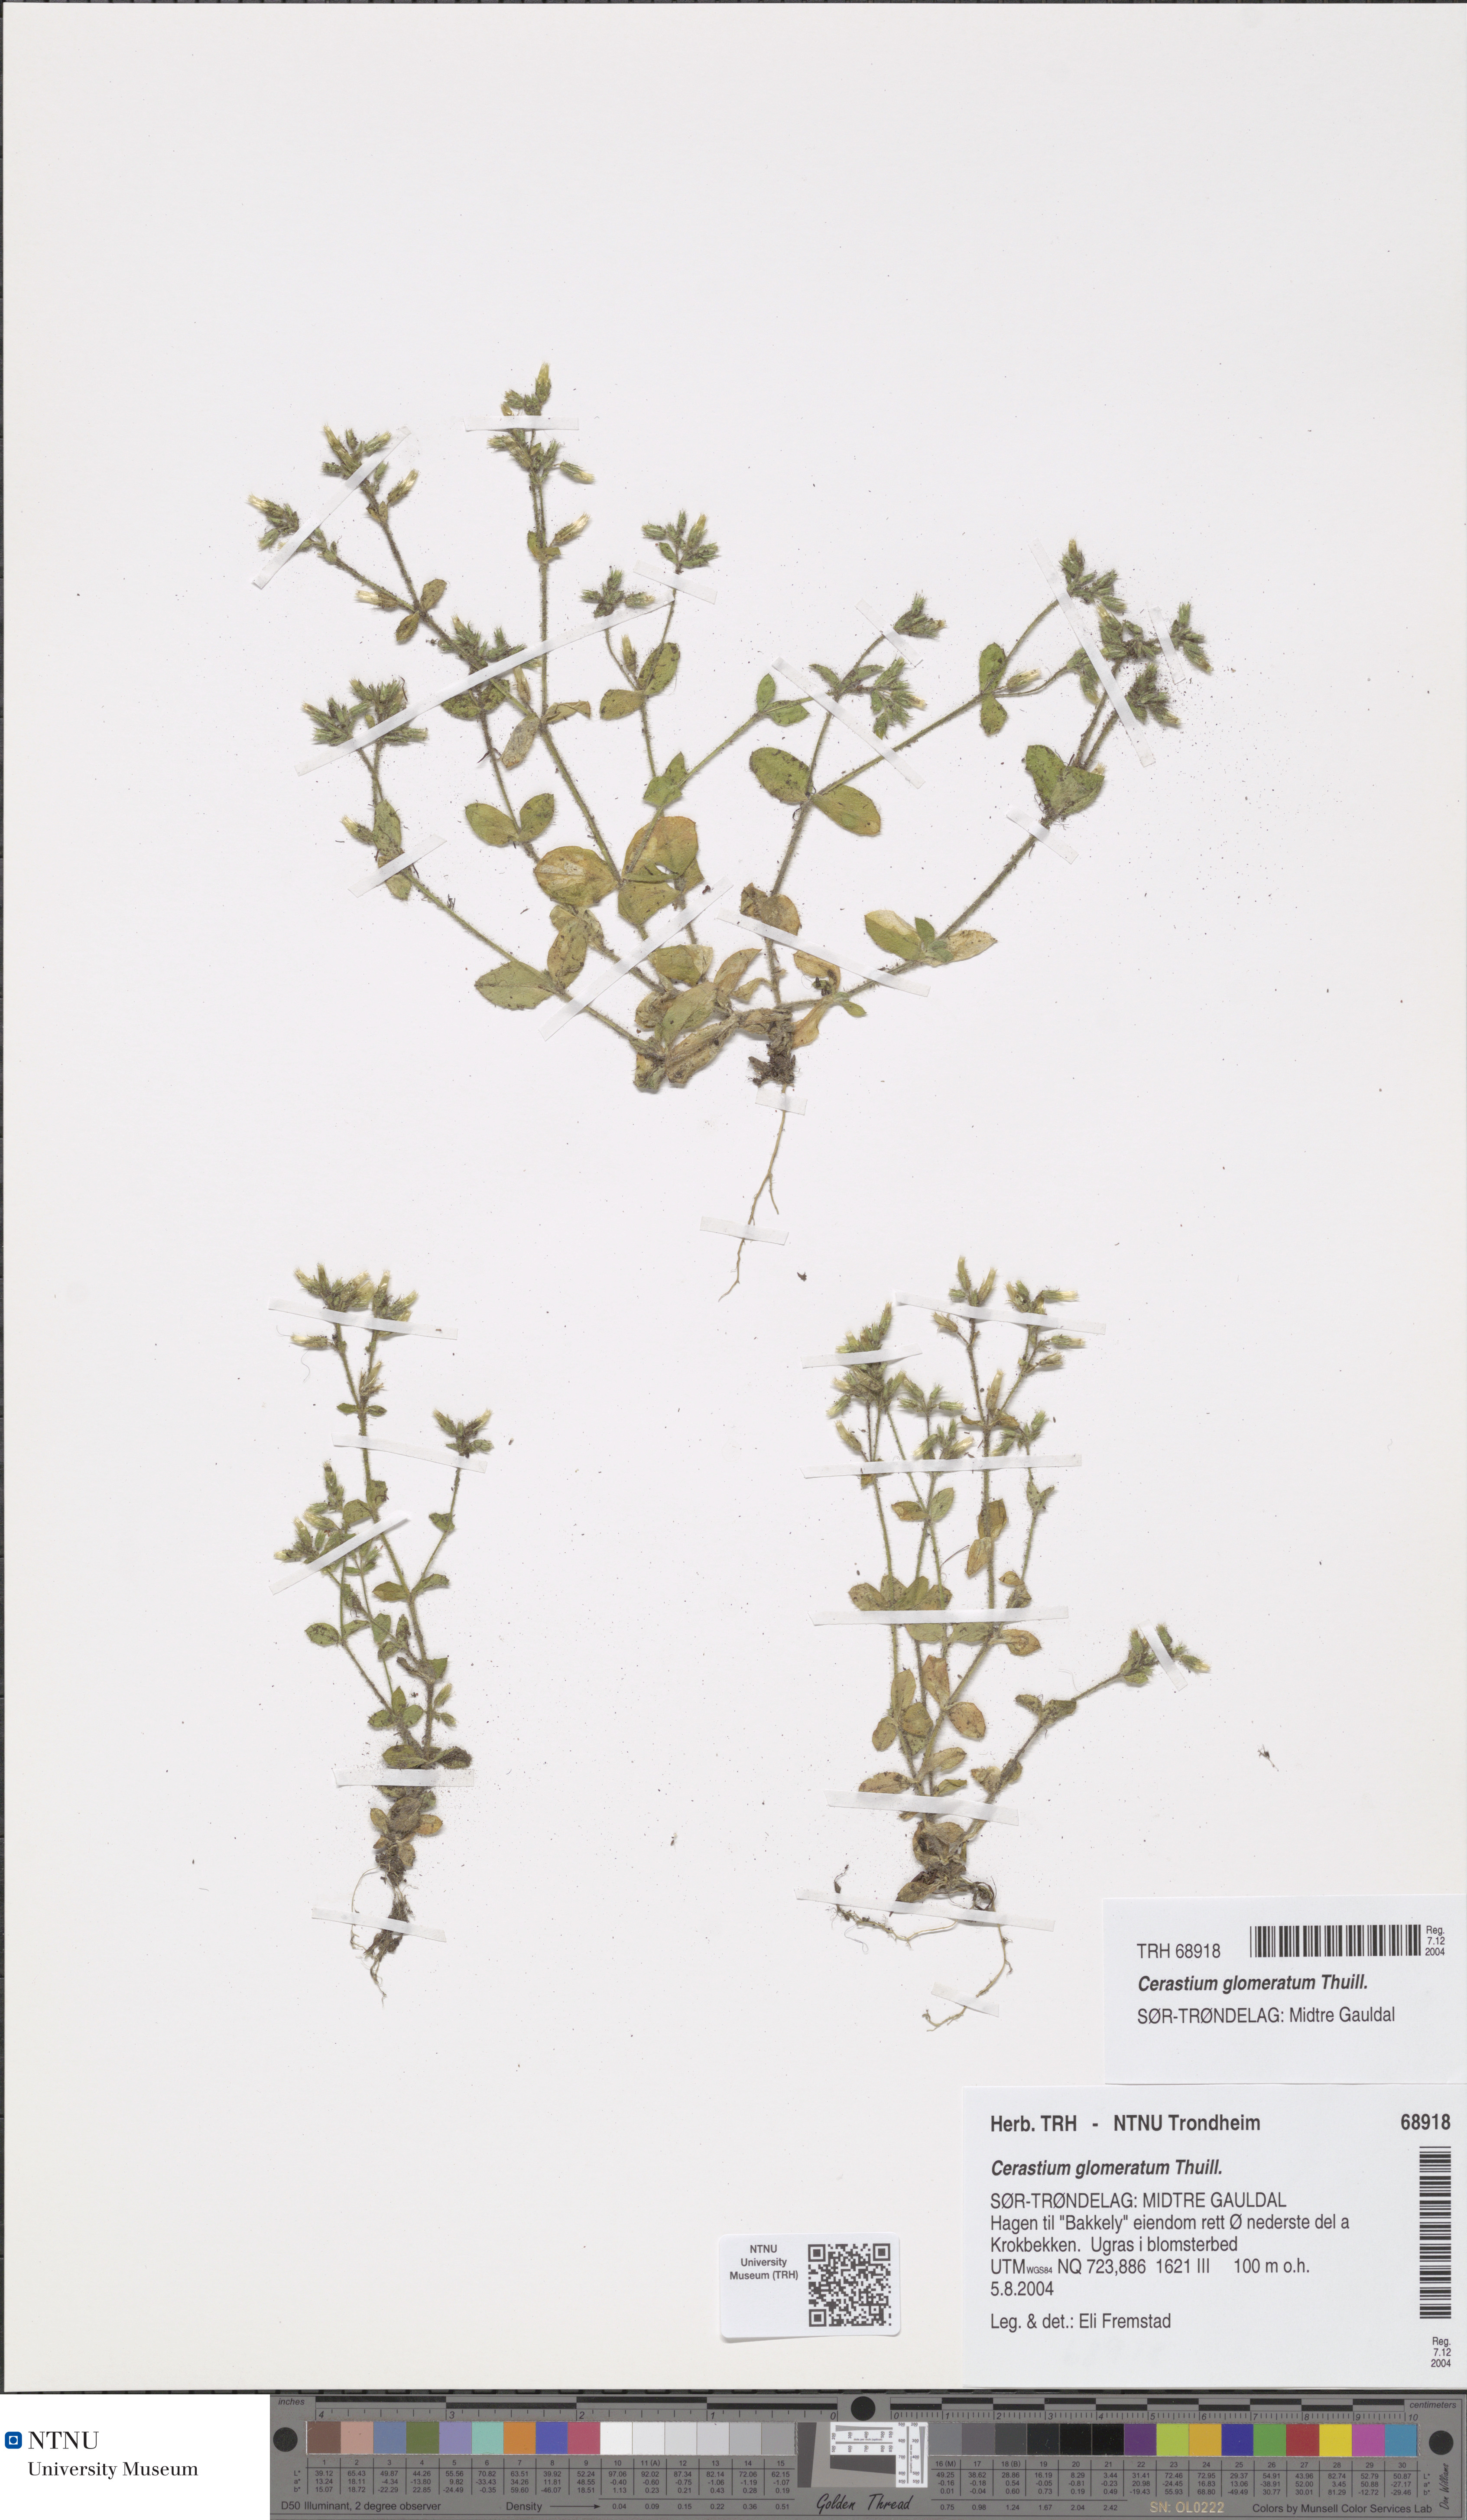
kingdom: Plantae
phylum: Tracheophyta
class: Magnoliopsida
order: Caryophyllales
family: Caryophyllaceae
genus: Cerastium
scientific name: Cerastium glomeratum
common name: Sticky chickweed
